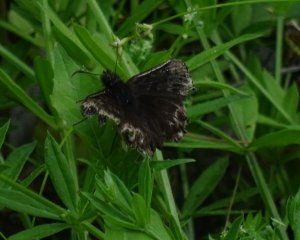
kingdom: Animalia
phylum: Arthropoda
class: Insecta
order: Lepidoptera
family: Hesperiidae
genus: Gesta
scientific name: Gesta
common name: Wild Indigo Duskywing
